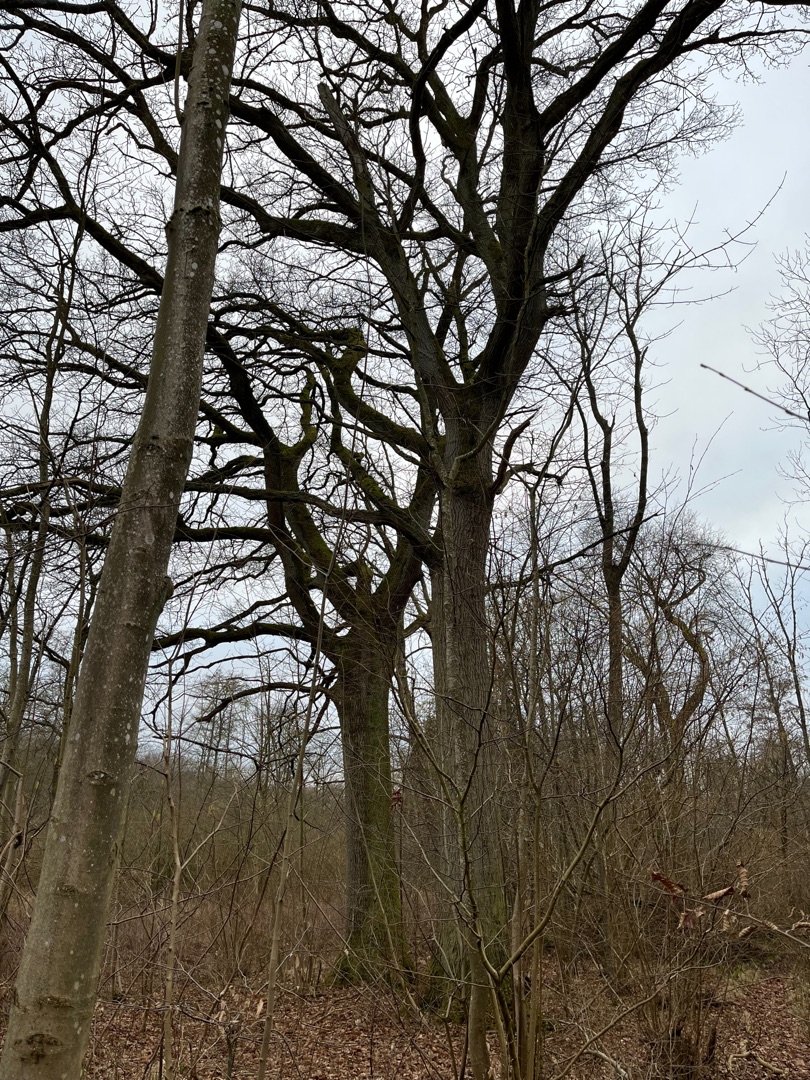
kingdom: Plantae
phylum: Tracheophyta
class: Magnoliopsida
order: Fagales
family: Fagaceae
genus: Quercus
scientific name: Quercus robur
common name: Stilk-eg/almindelig eg
